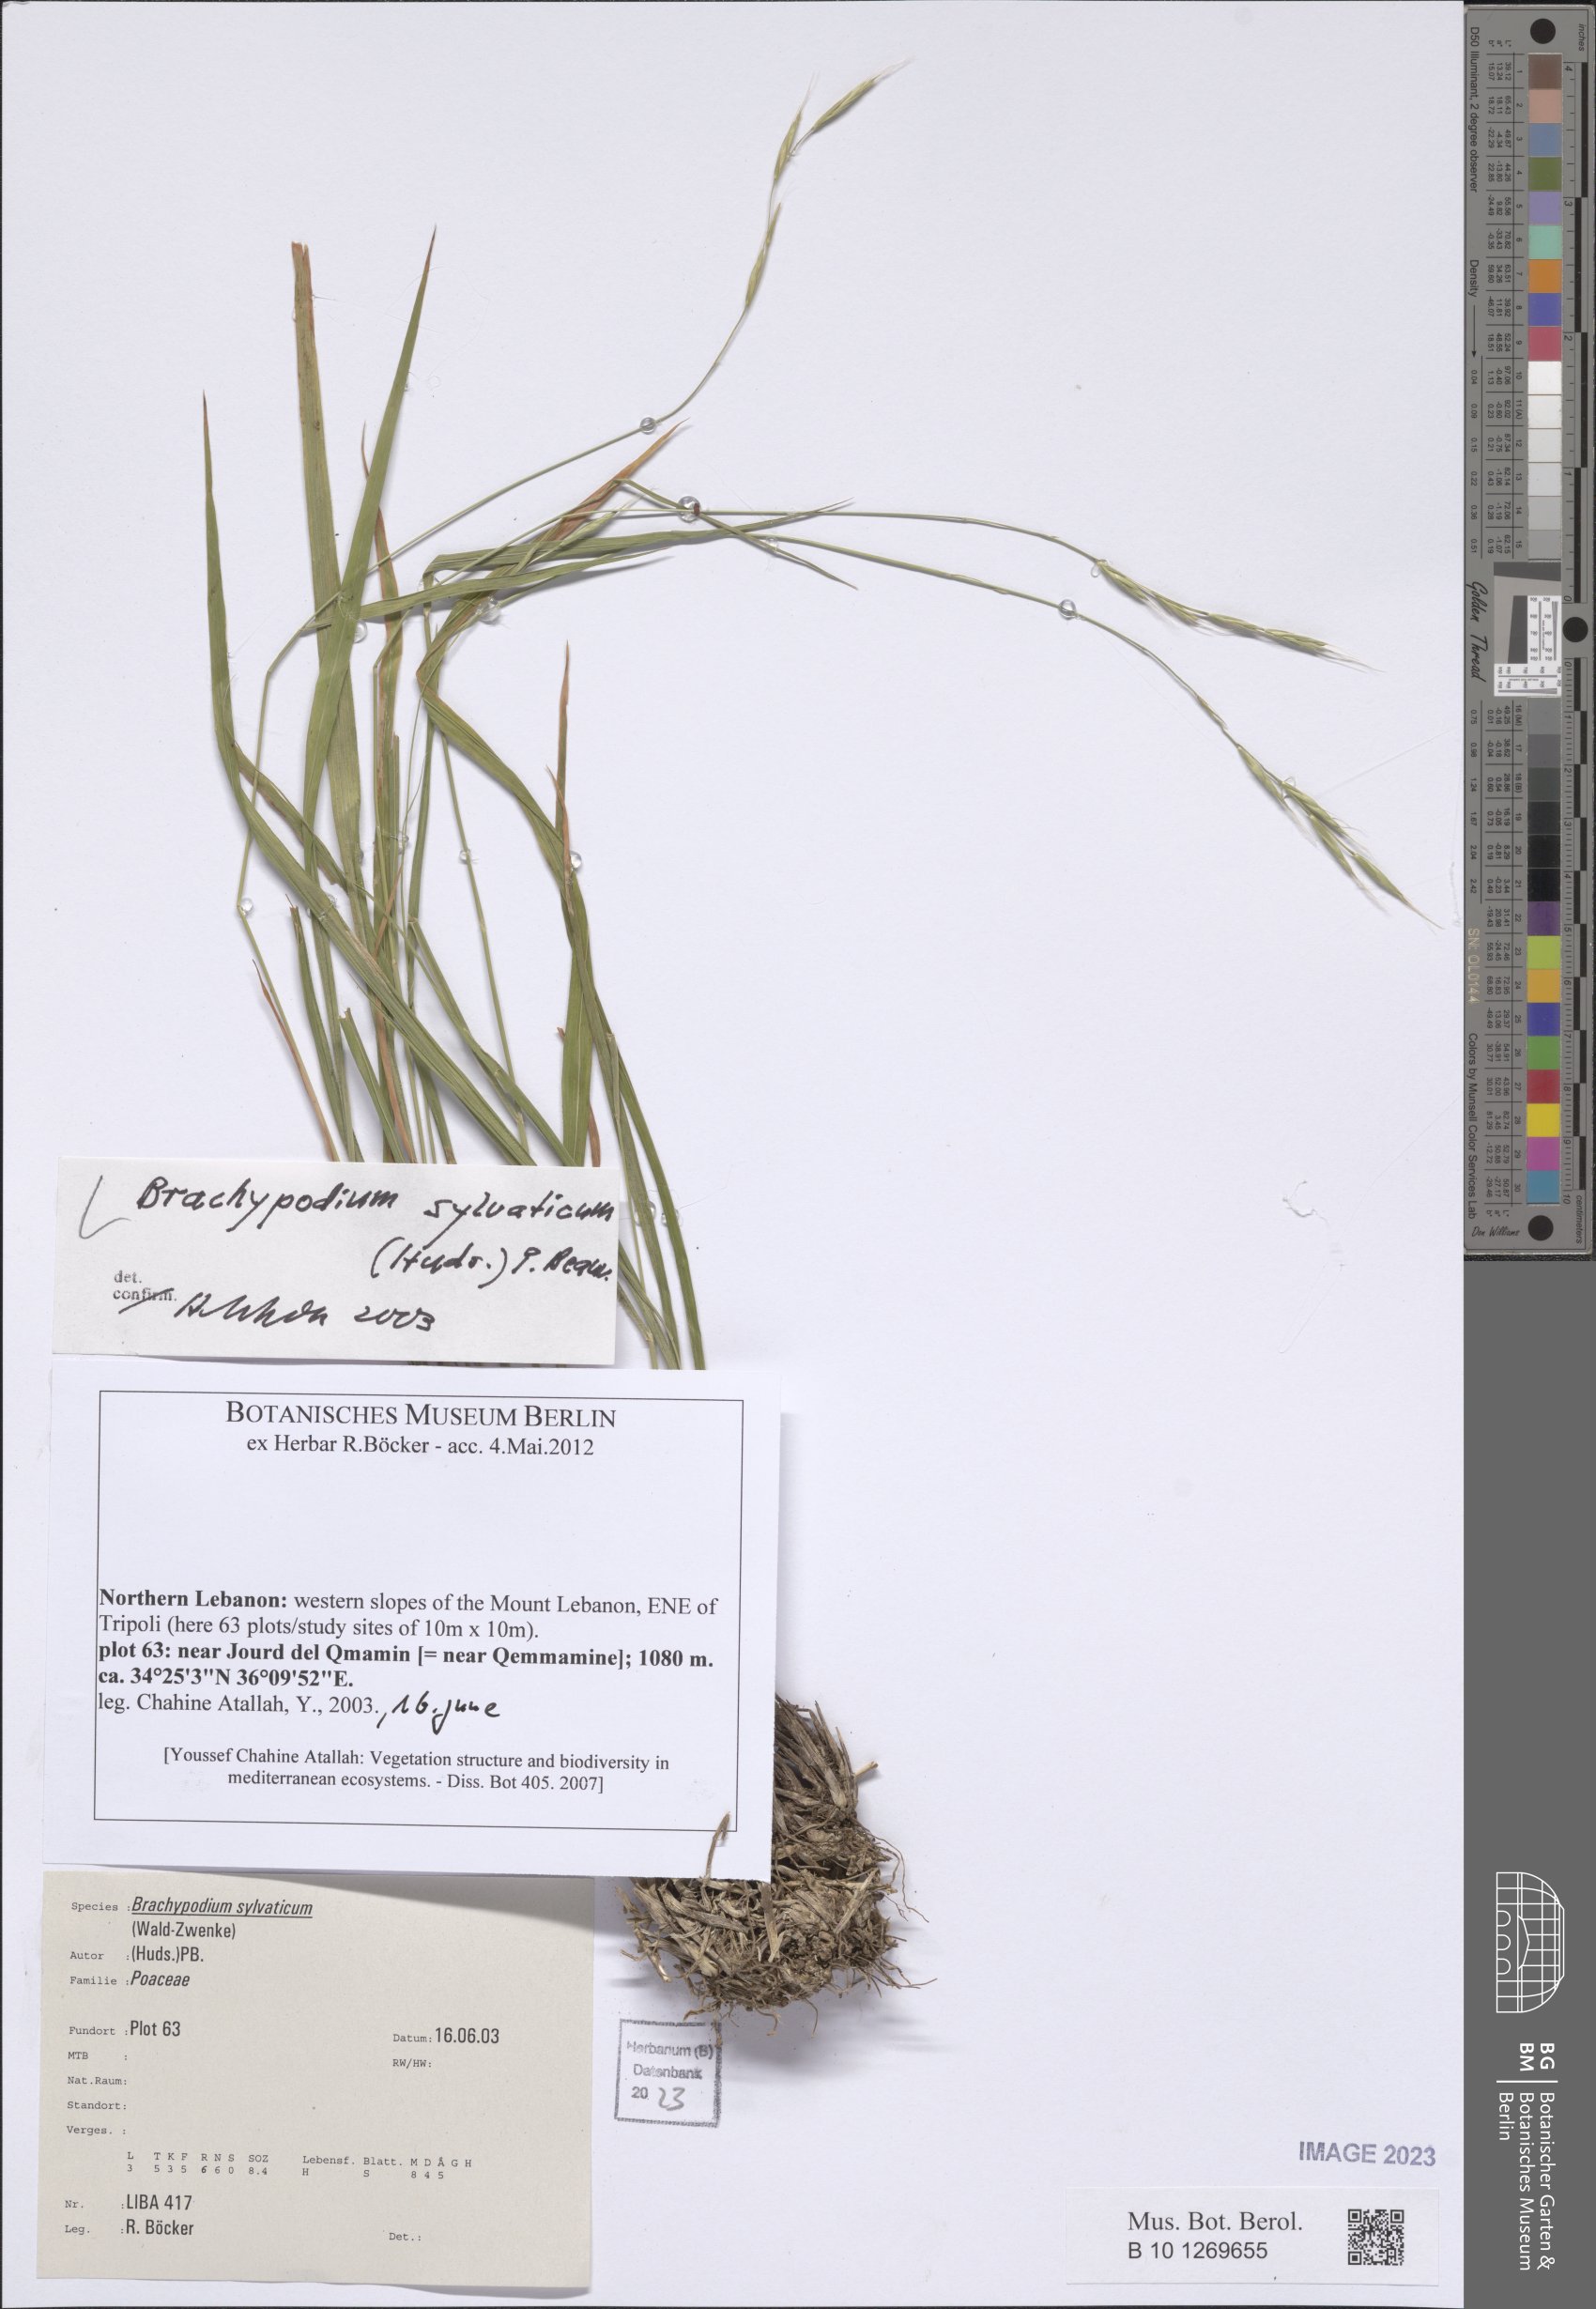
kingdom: Plantae
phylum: Tracheophyta
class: Liliopsida
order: Poales
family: Poaceae
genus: Brachypodium
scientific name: Brachypodium sylvaticum
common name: False-brome
